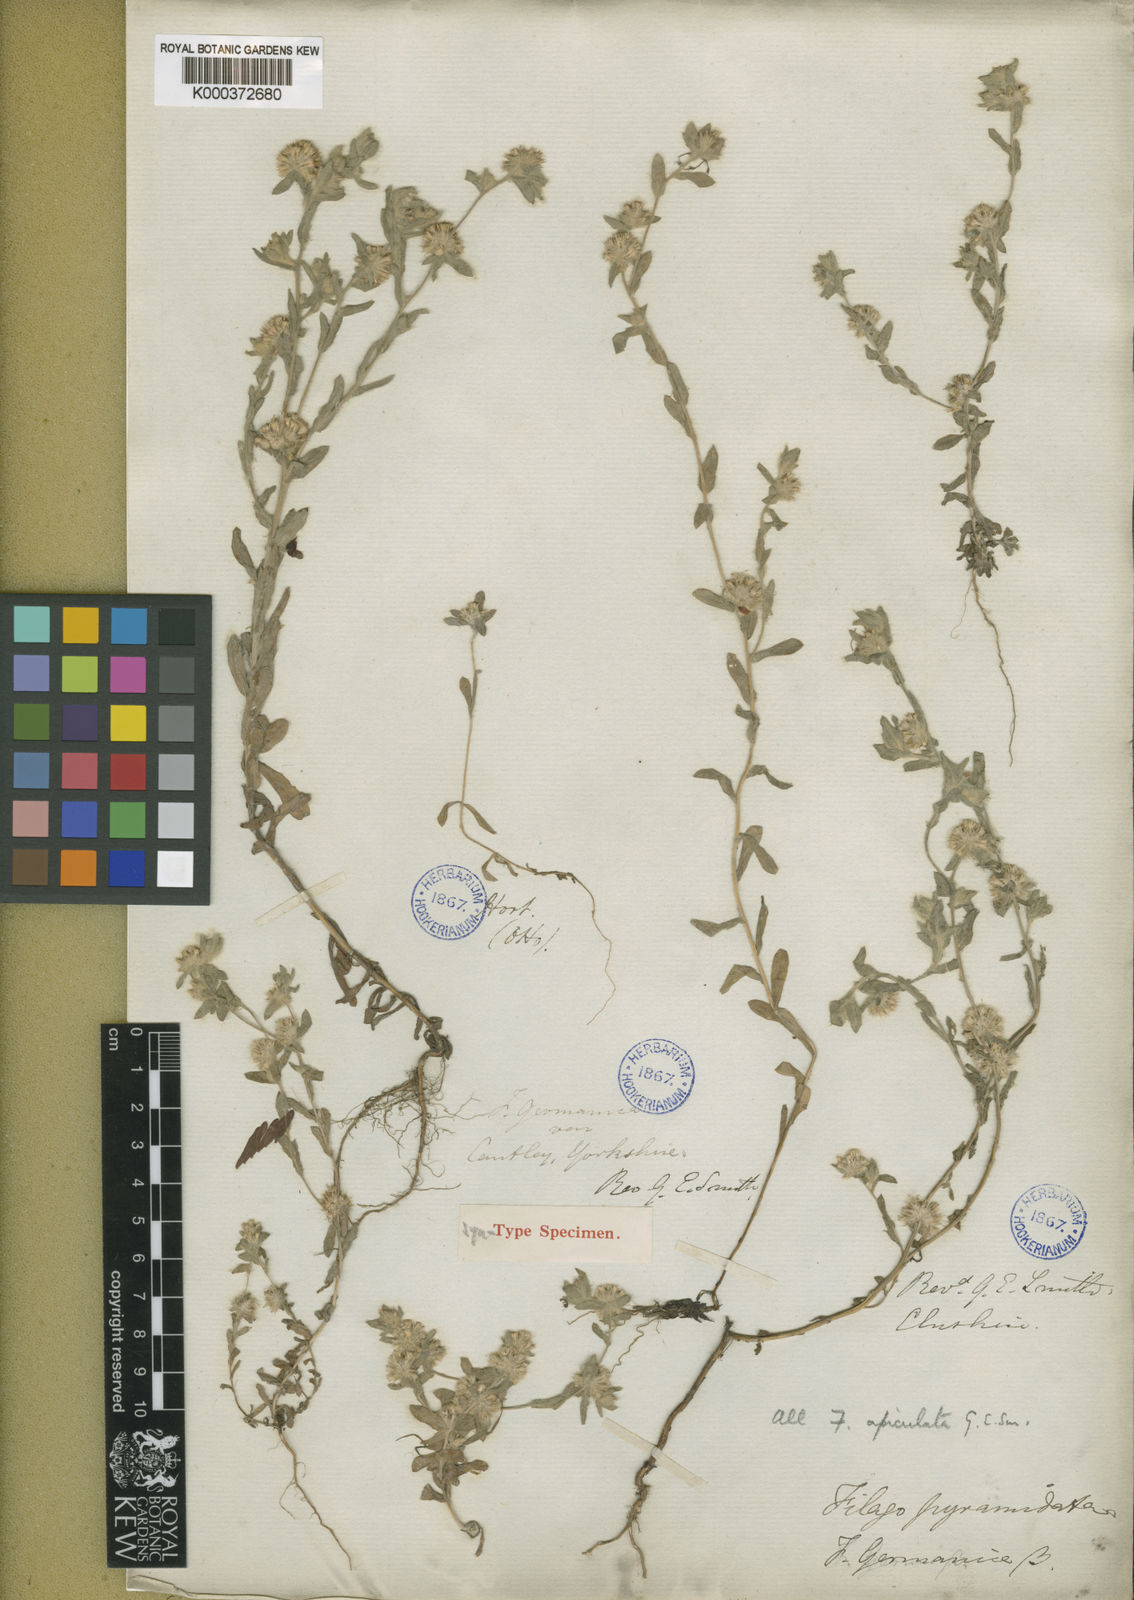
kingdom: Plantae
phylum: Tracheophyta
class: Magnoliopsida
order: Asterales
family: Asteraceae
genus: Filago
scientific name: Filago lutescens
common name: Red-tipped cudweed
